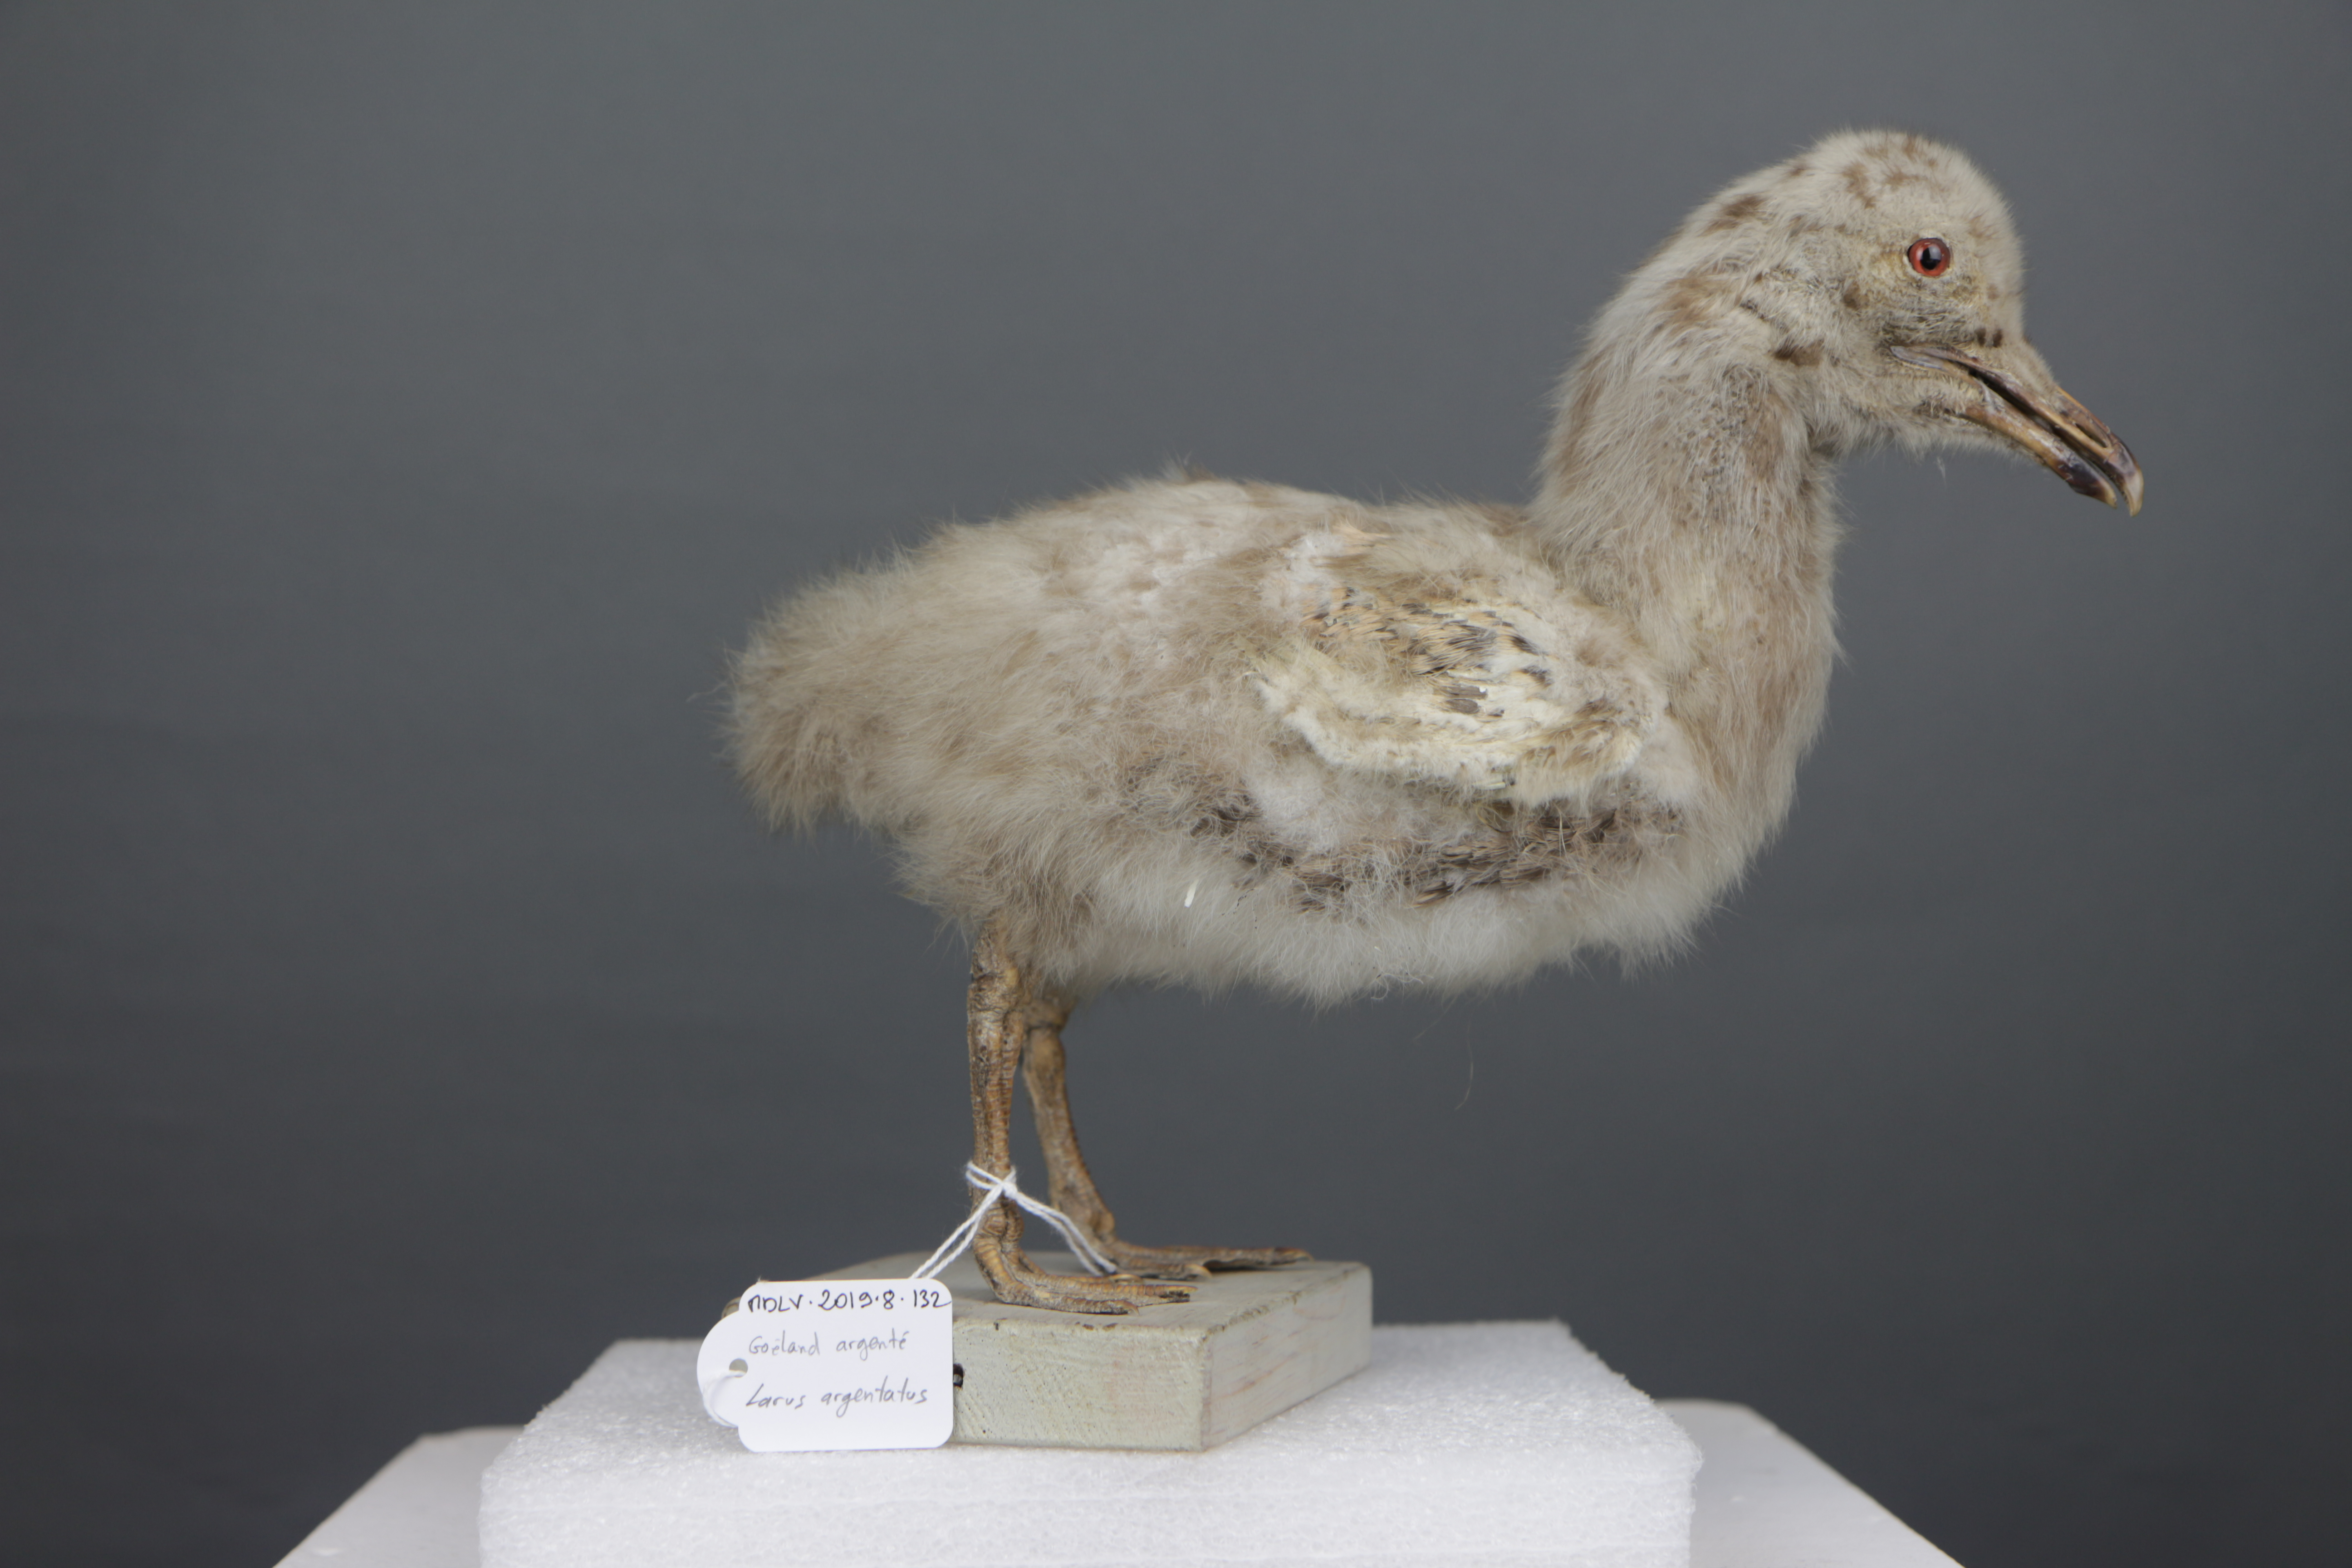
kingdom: Animalia
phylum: Chordata
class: Aves
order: Charadriiformes
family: Laridae
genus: Larus
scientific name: Larus argentatus
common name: Herring gull
